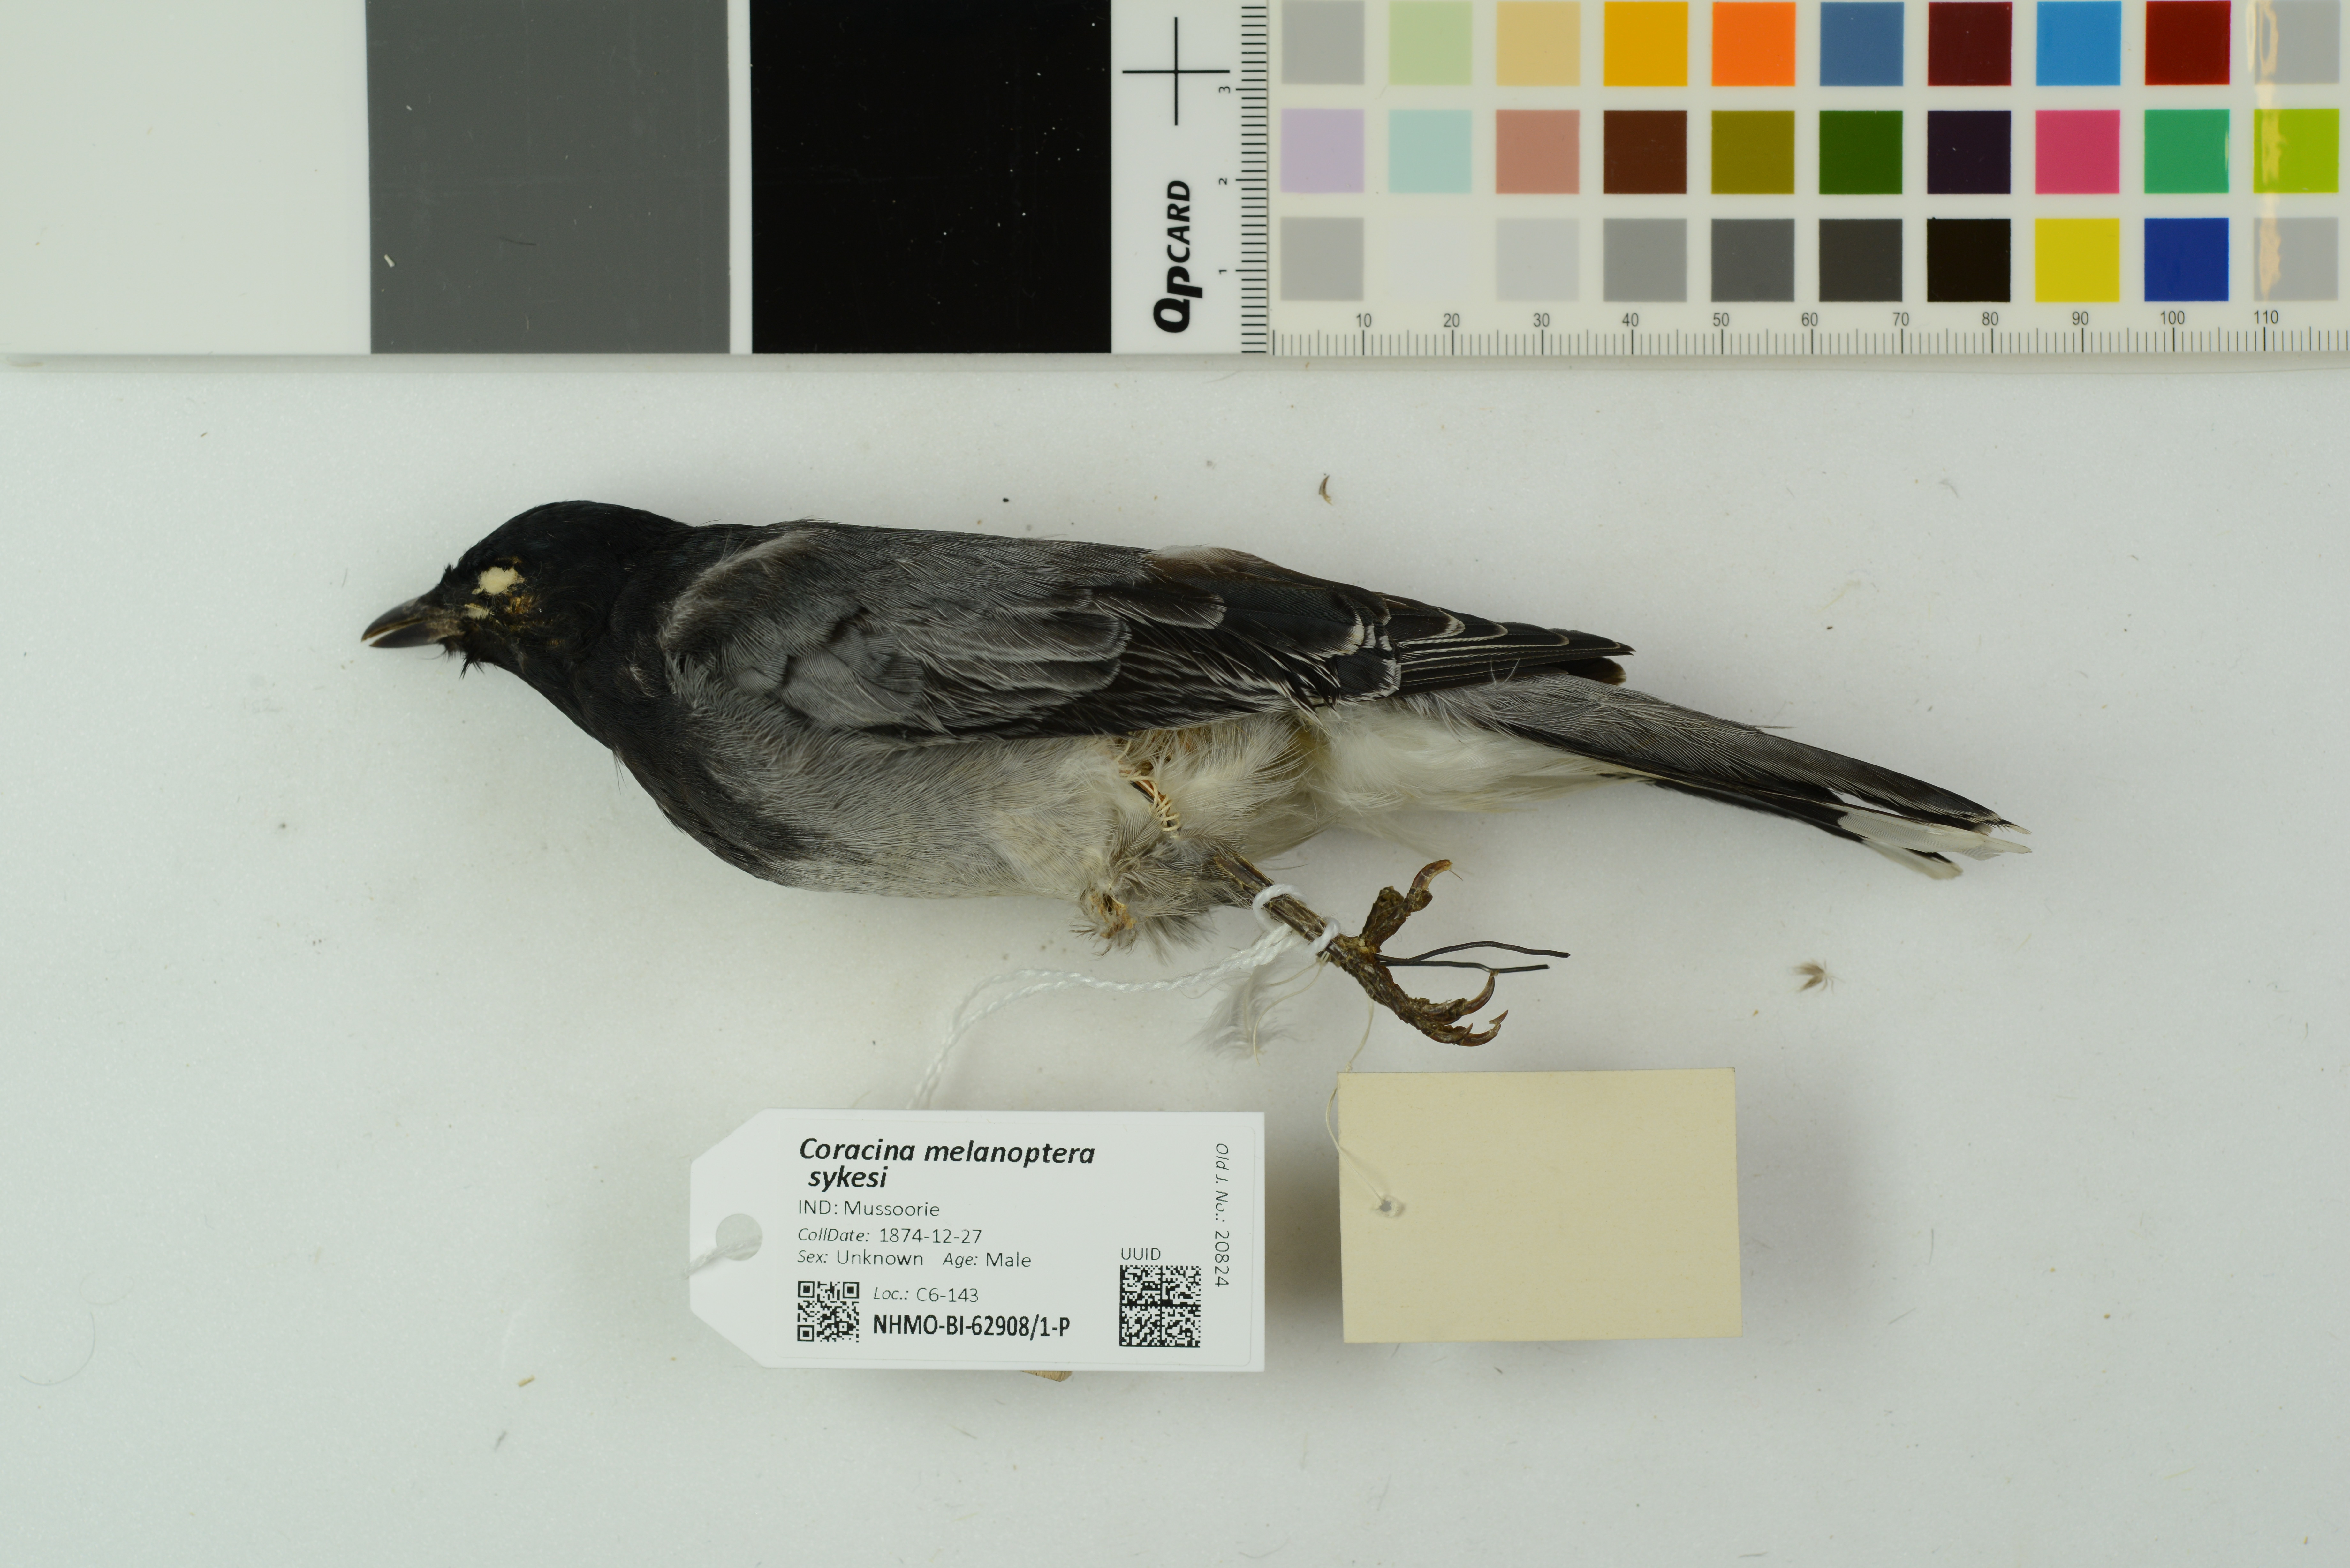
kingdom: Animalia
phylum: Chordata
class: Aves
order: Passeriformes
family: Campephagidae
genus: Coracina
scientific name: Coracina melanoptera
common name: Black-headed cuckooshrike
